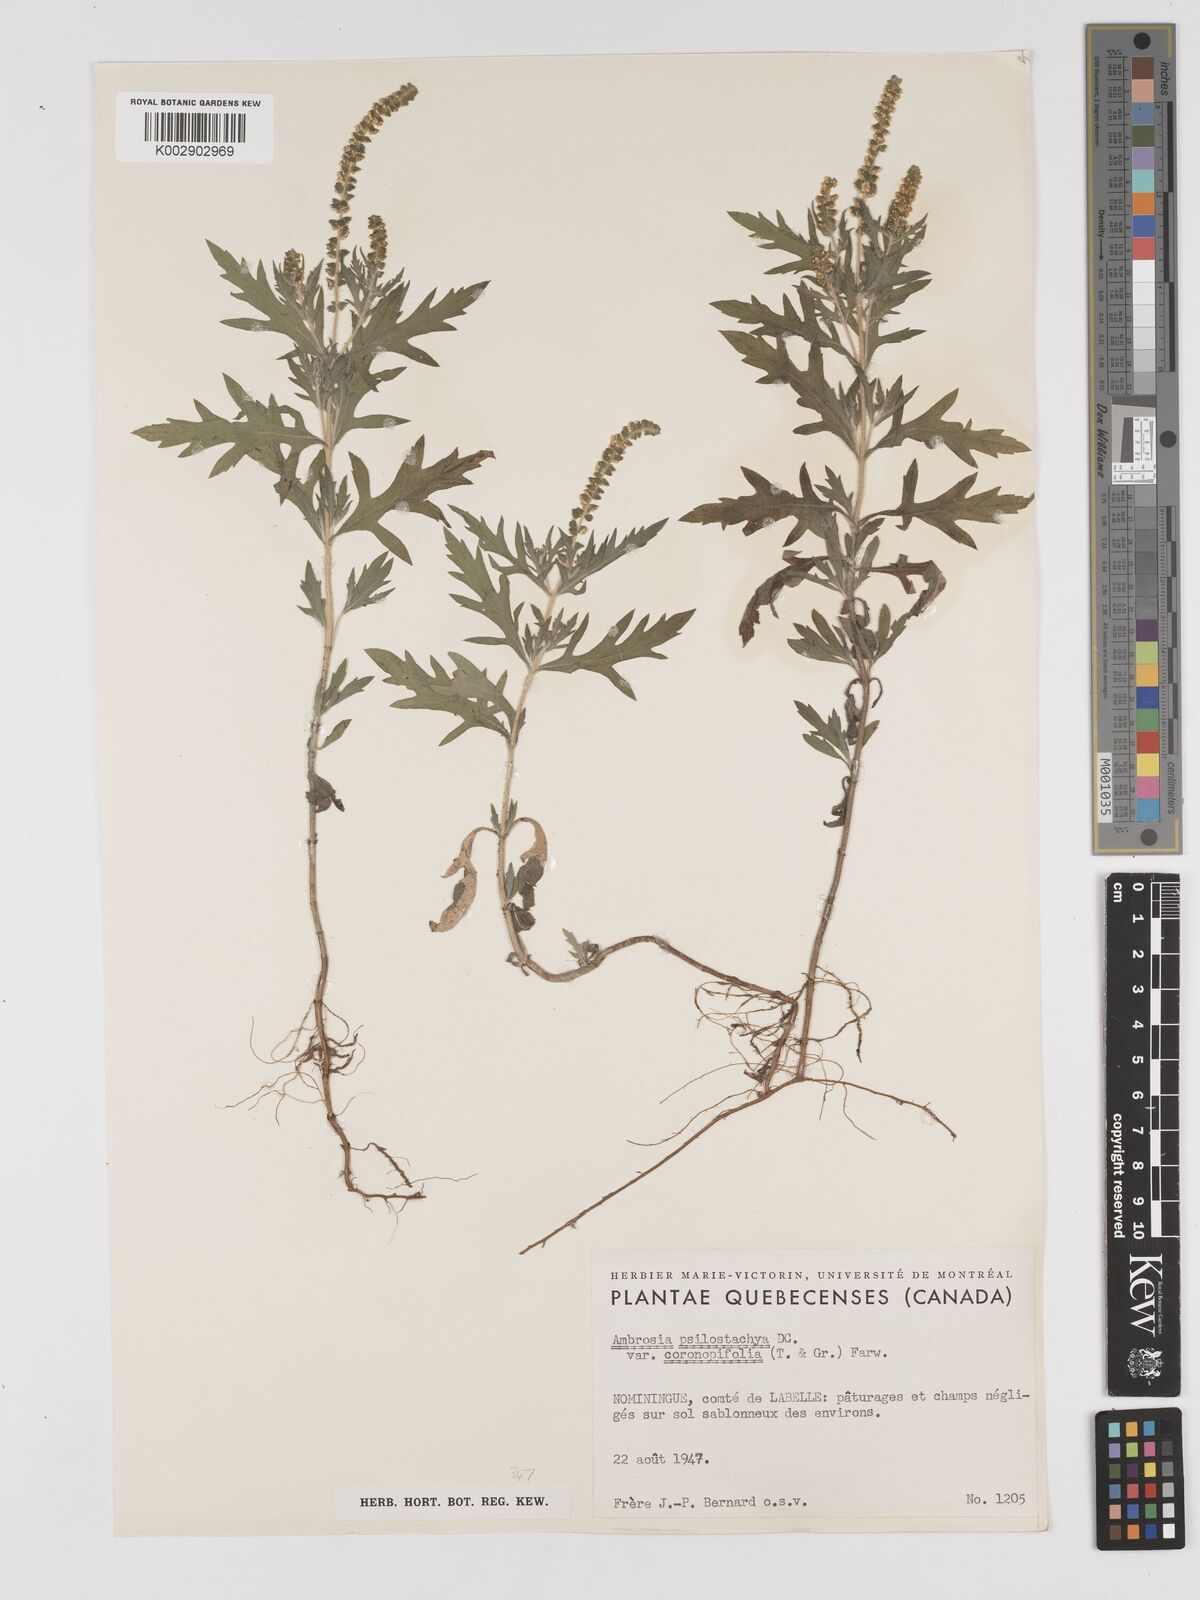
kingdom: Plantae
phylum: Tracheophyta
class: Magnoliopsida
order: Asterales
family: Asteraceae
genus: Ambrosia
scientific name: Ambrosia psilostachya
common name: Perennial ragweed
